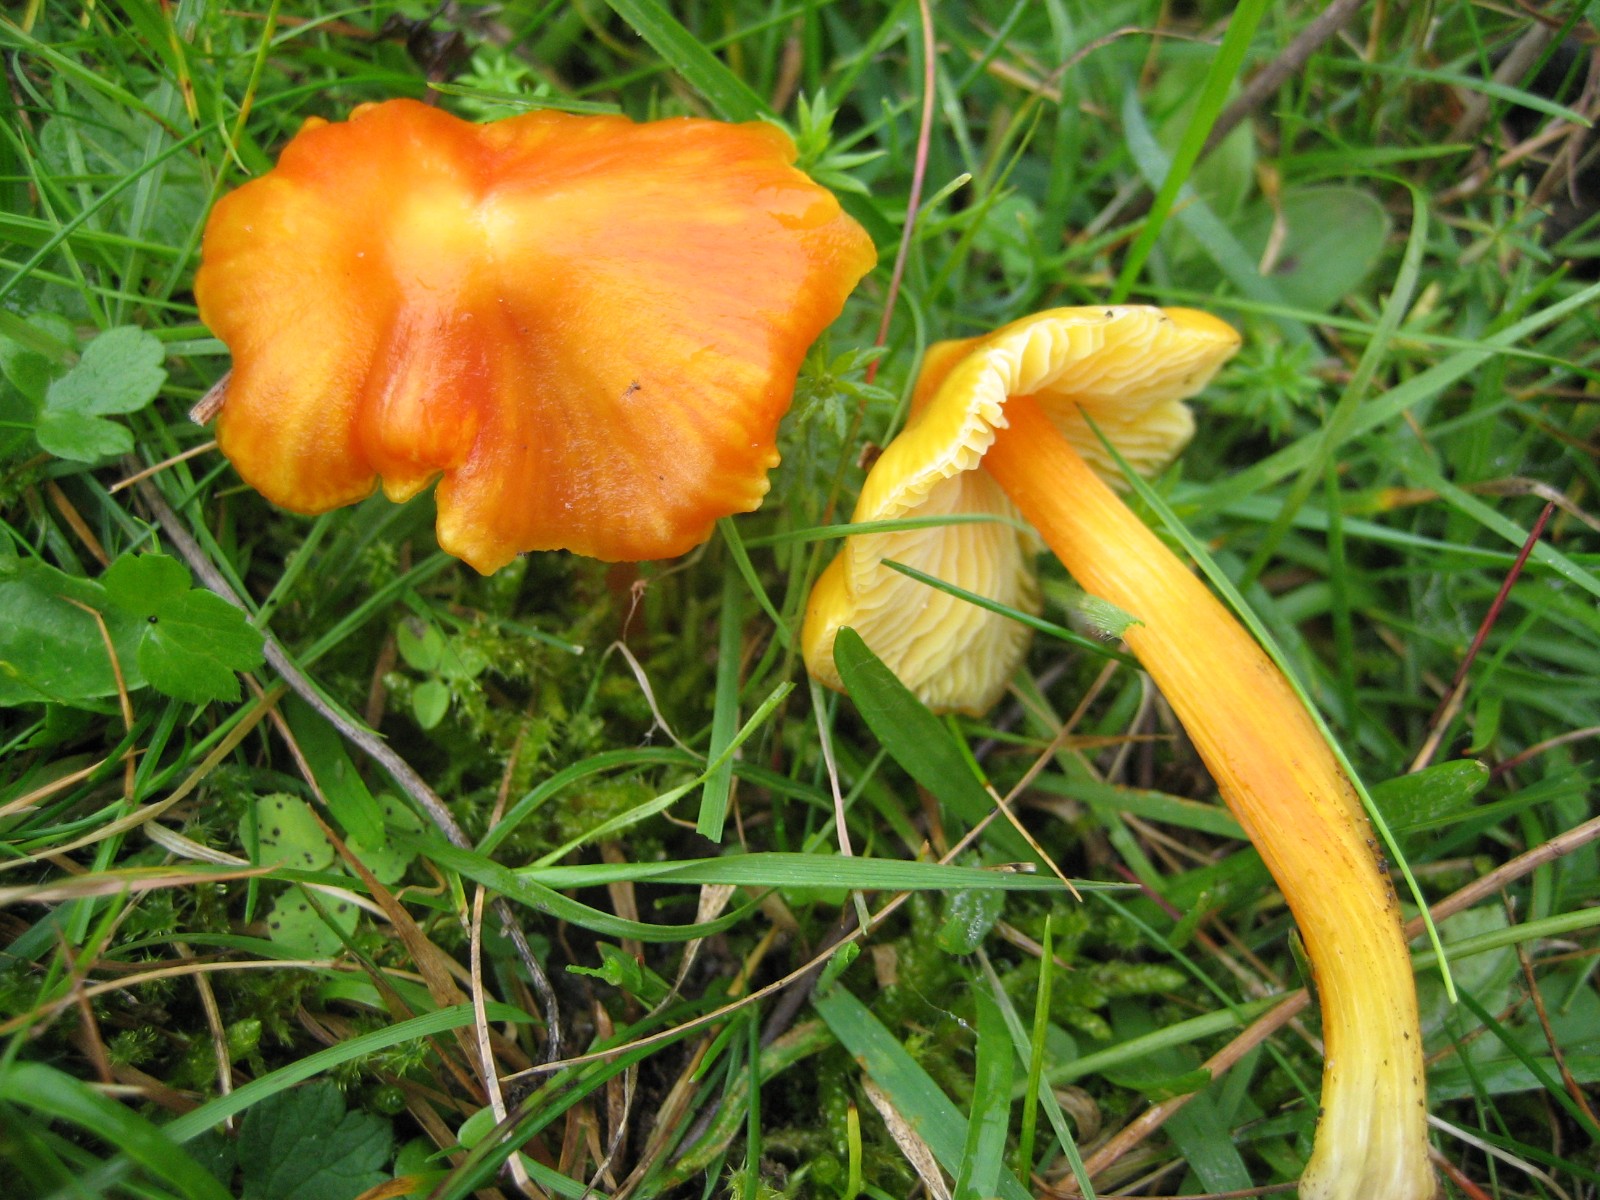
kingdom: Fungi
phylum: Basidiomycota
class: Agaricomycetes
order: Agaricales
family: Hygrophoraceae
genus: Hygrocybe
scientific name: Hygrocybe
